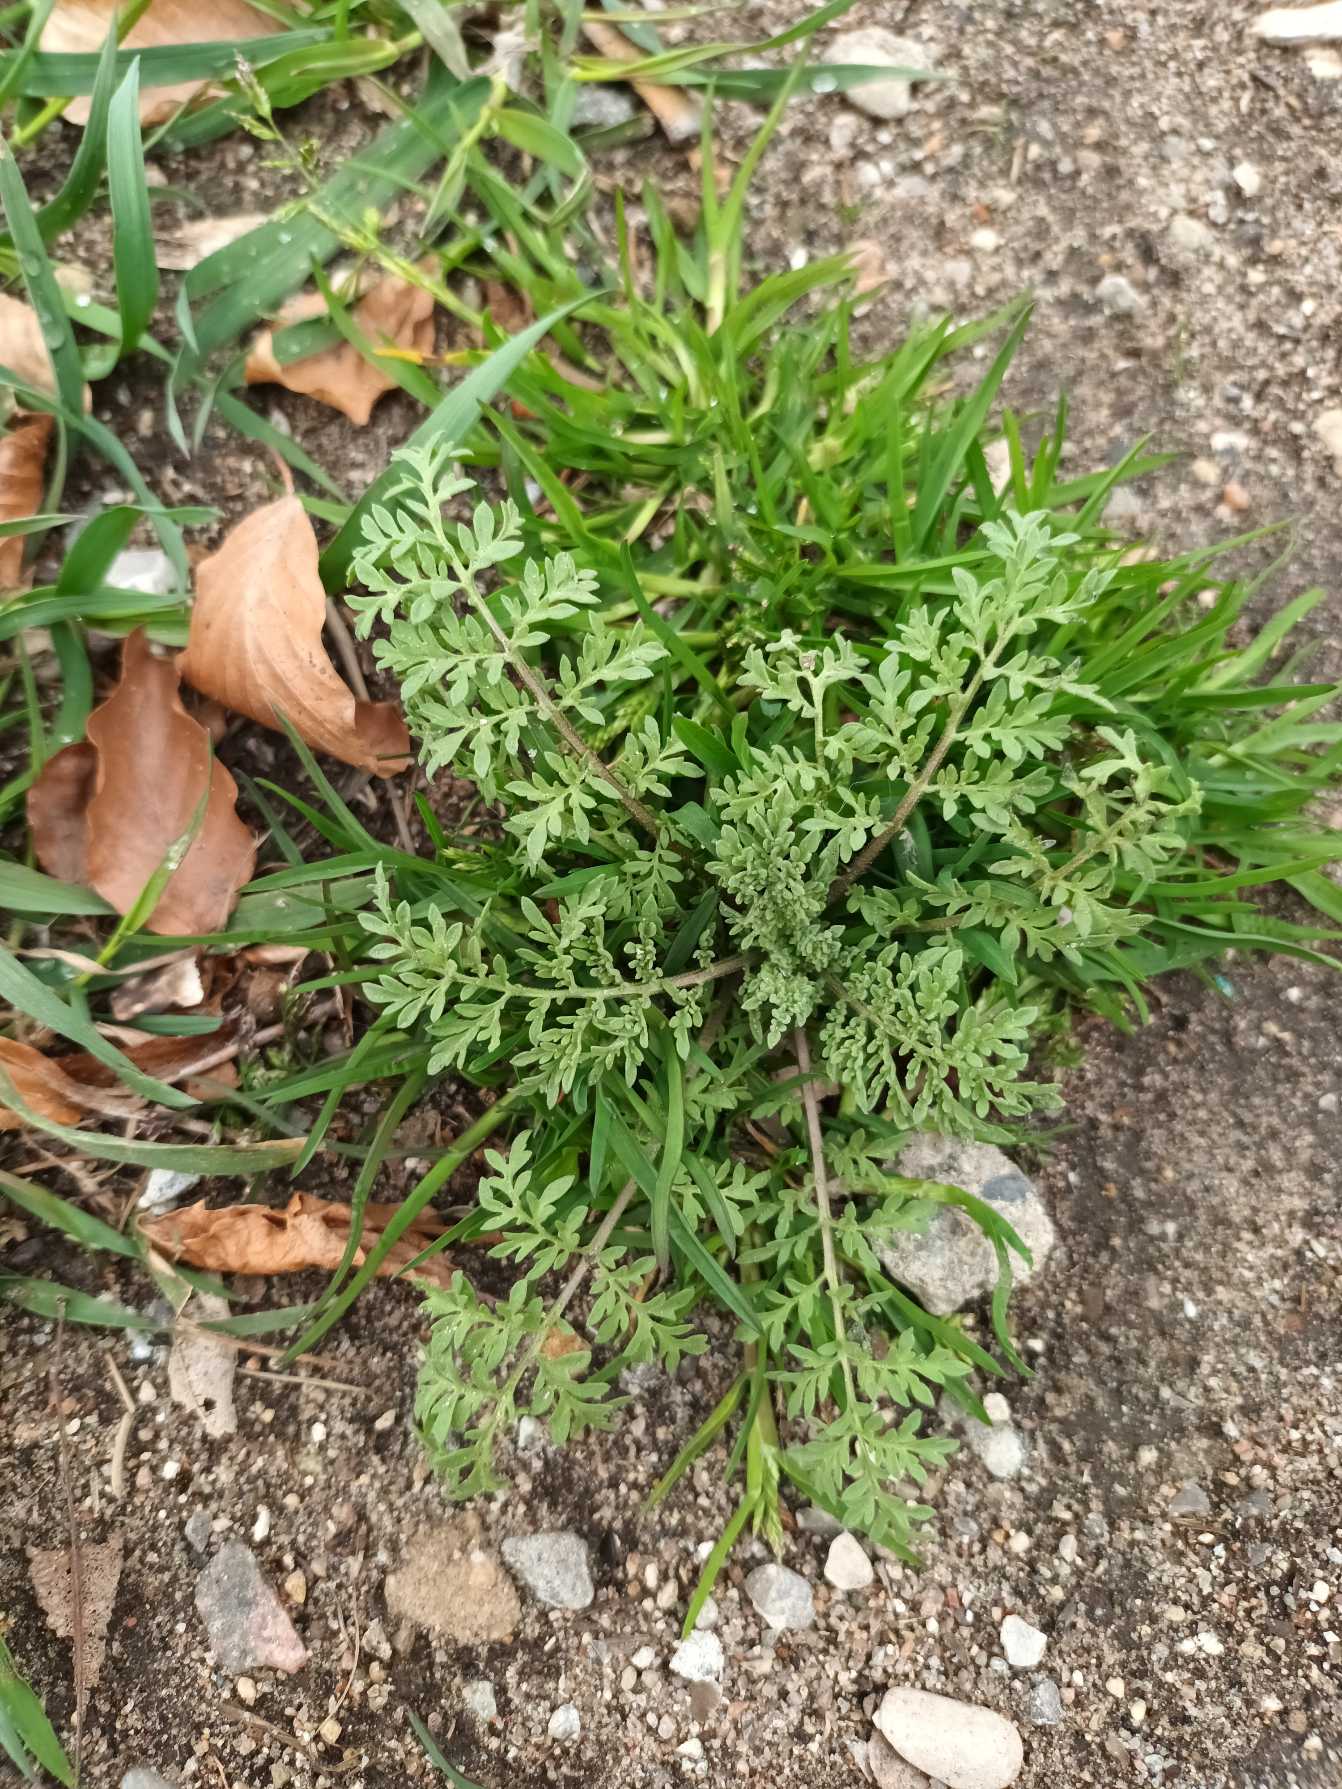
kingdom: Plantae
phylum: Tracheophyta
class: Magnoliopsida
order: Brassicales
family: Brassicaceae
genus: Descurainia
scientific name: Descurainia sophia
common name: Finbladet vejsennep
